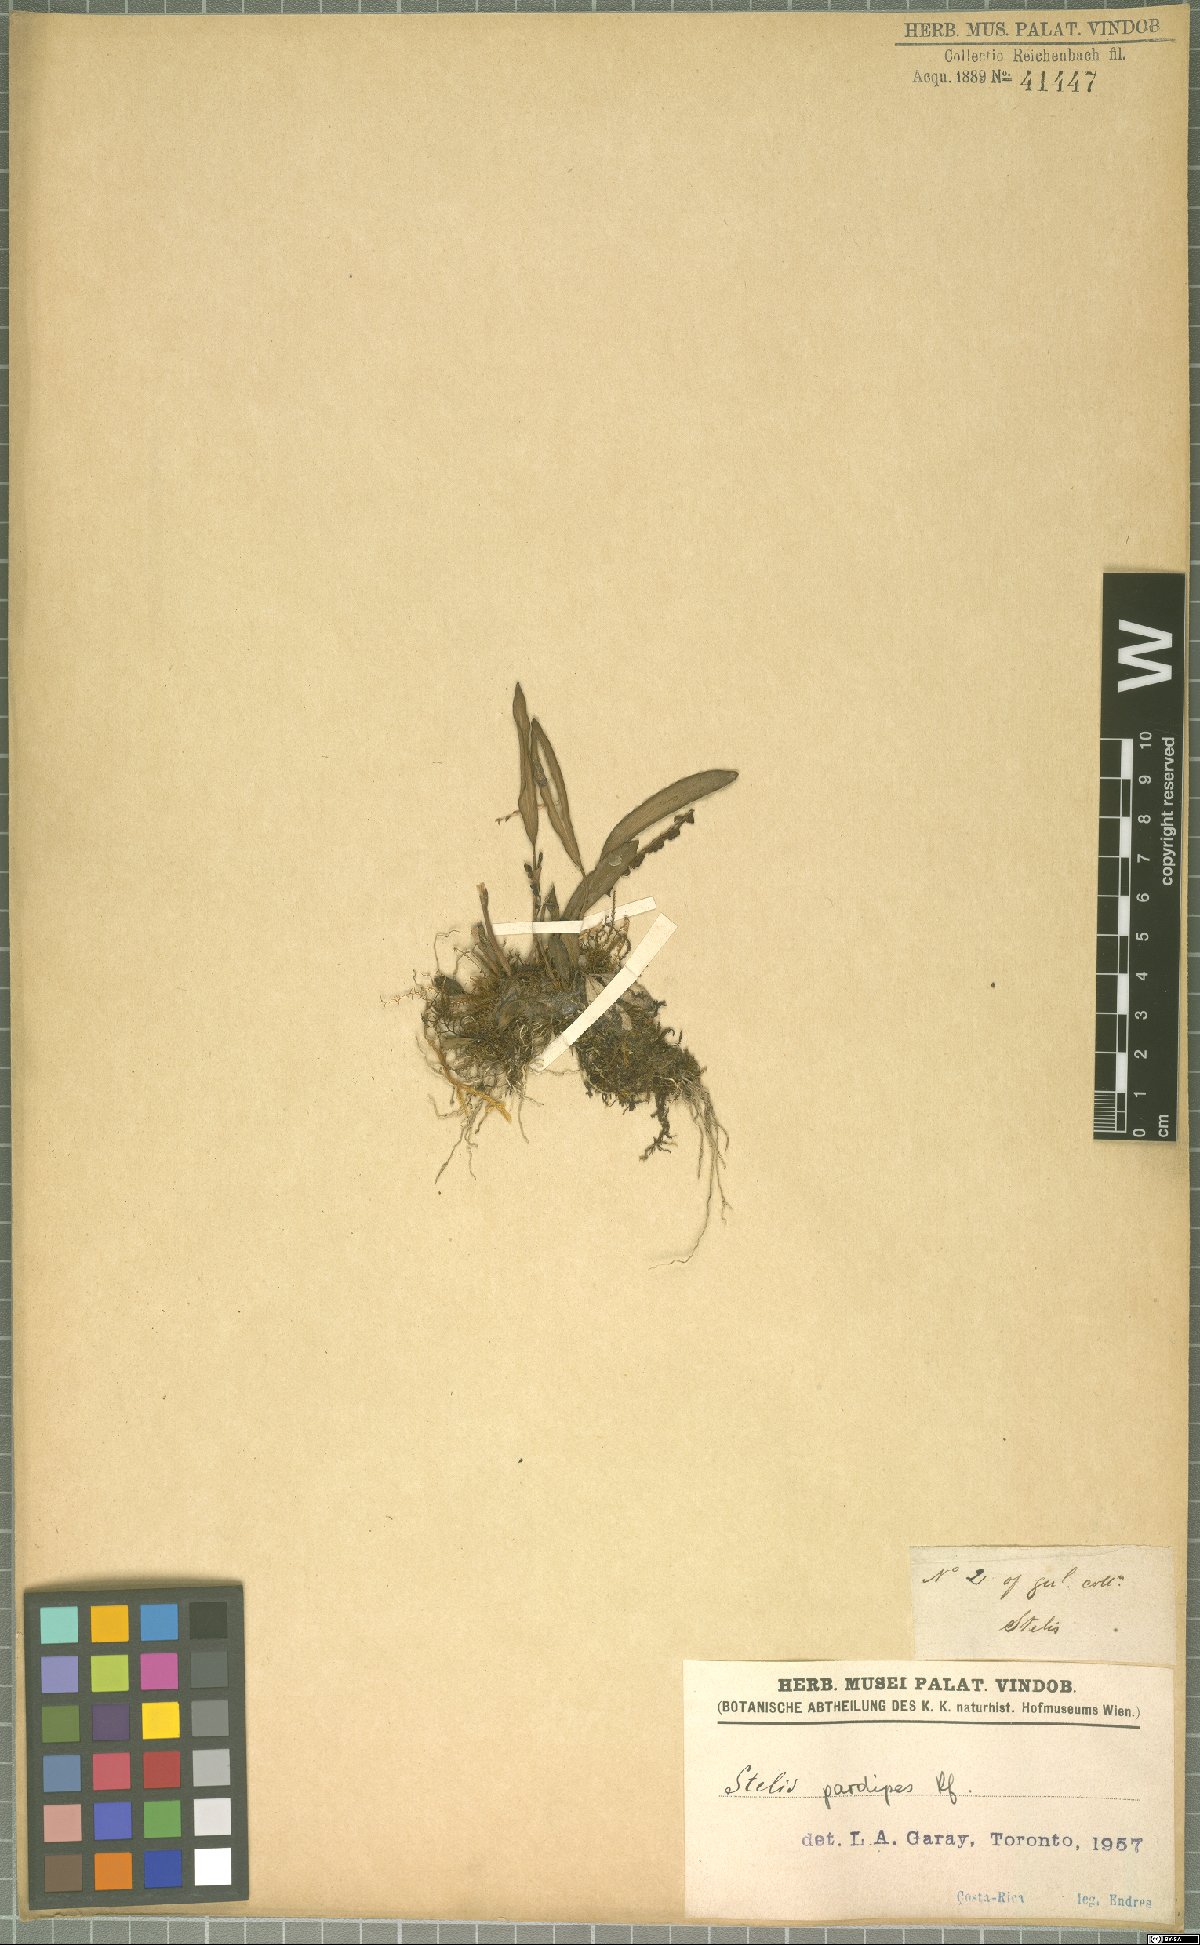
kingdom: Plantae
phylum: Tracheophyta
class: Liliopsida
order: Asparagales
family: Orchidaceae
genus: Stelis
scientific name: Stelis pardipes
